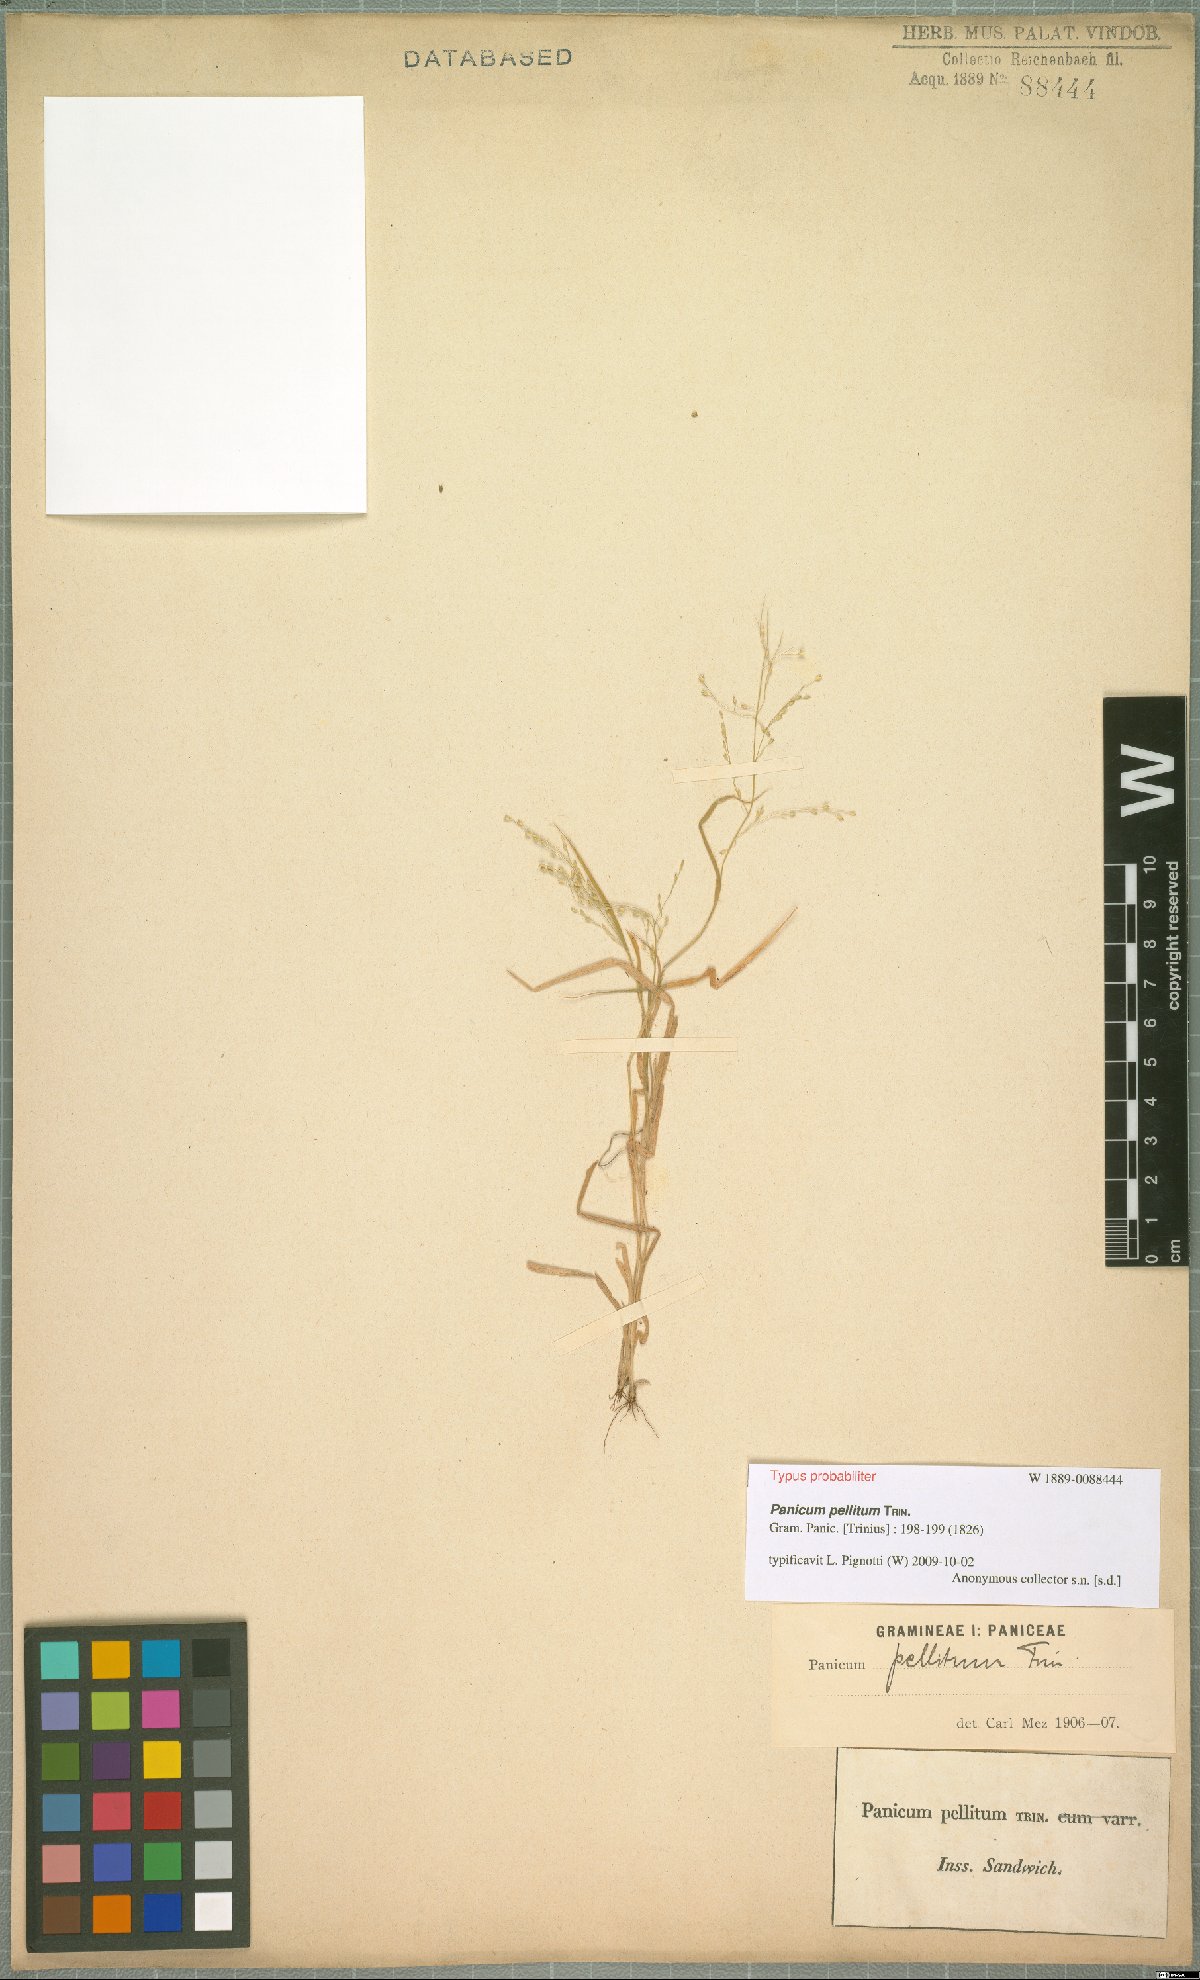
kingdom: Plantae
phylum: Tracheophyta
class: Liliopsida
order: Poales
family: Poaceae
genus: Panicum
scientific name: Panicum pellitum
